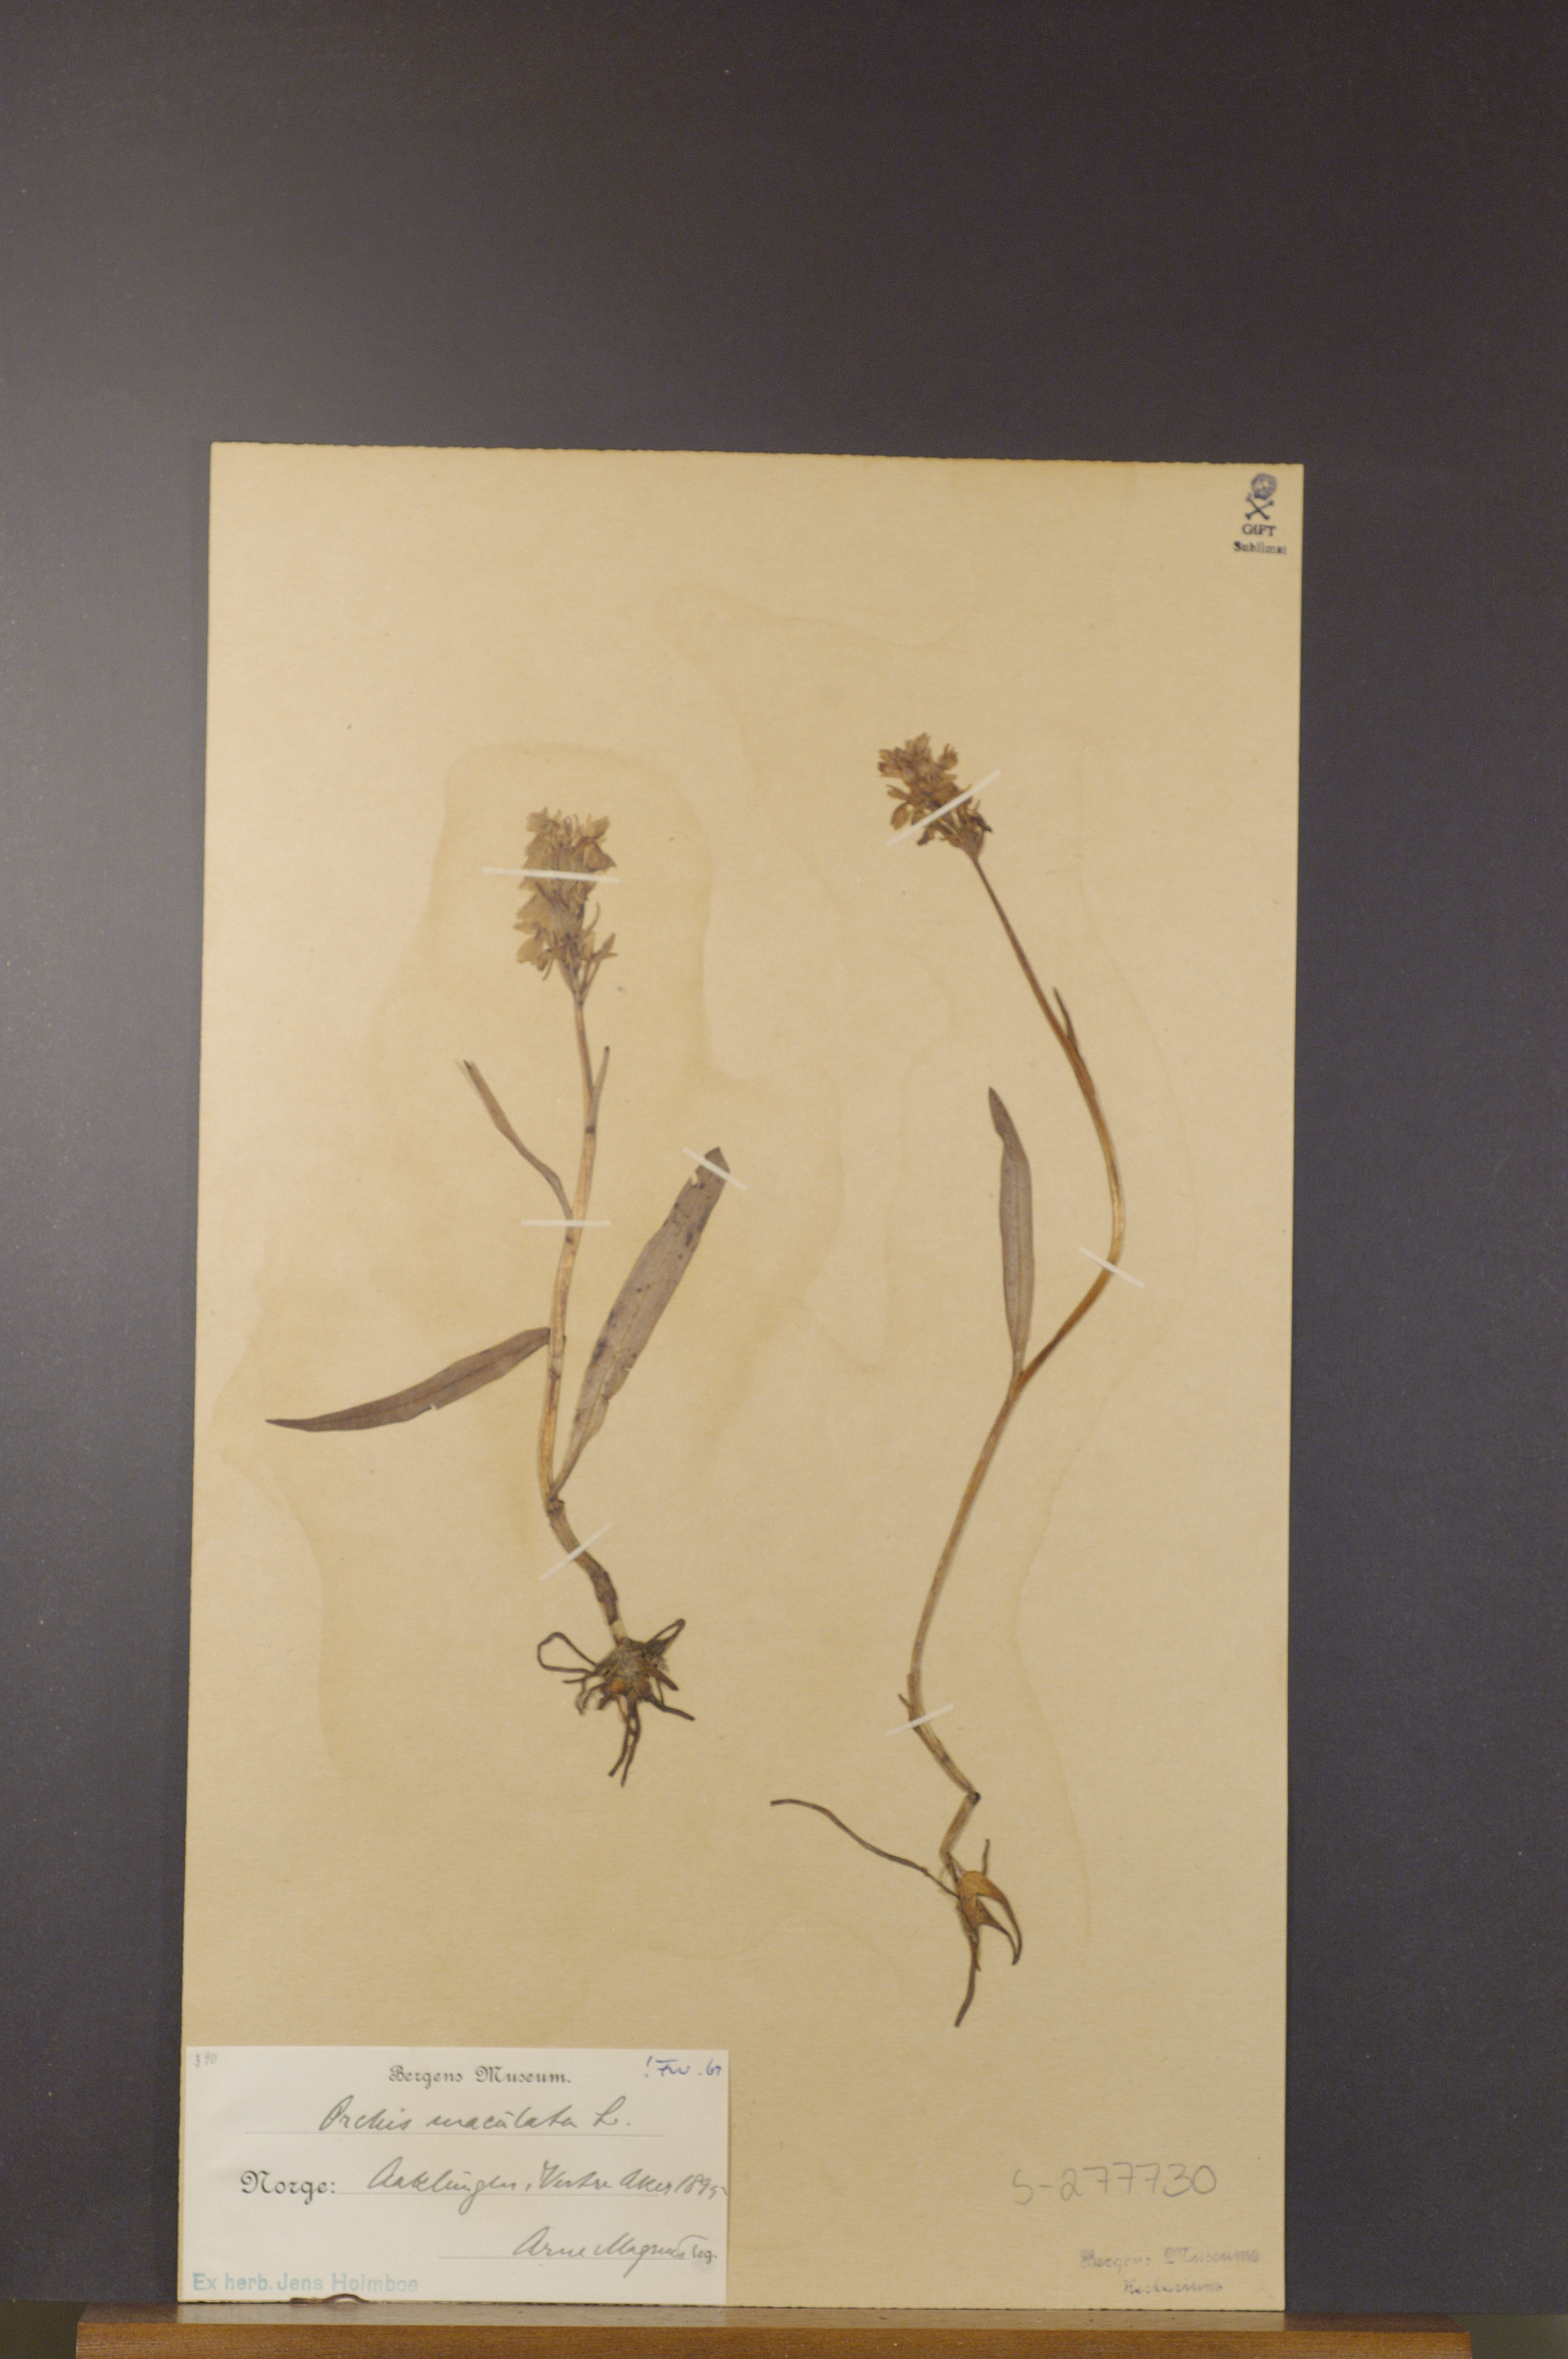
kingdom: Plantae
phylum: Tracheophyta
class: Liliopsida
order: Asparagales
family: Orchidaceae
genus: Dactylorhiza
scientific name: Dactylorhiza maculata
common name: Heath spotted-orchid
